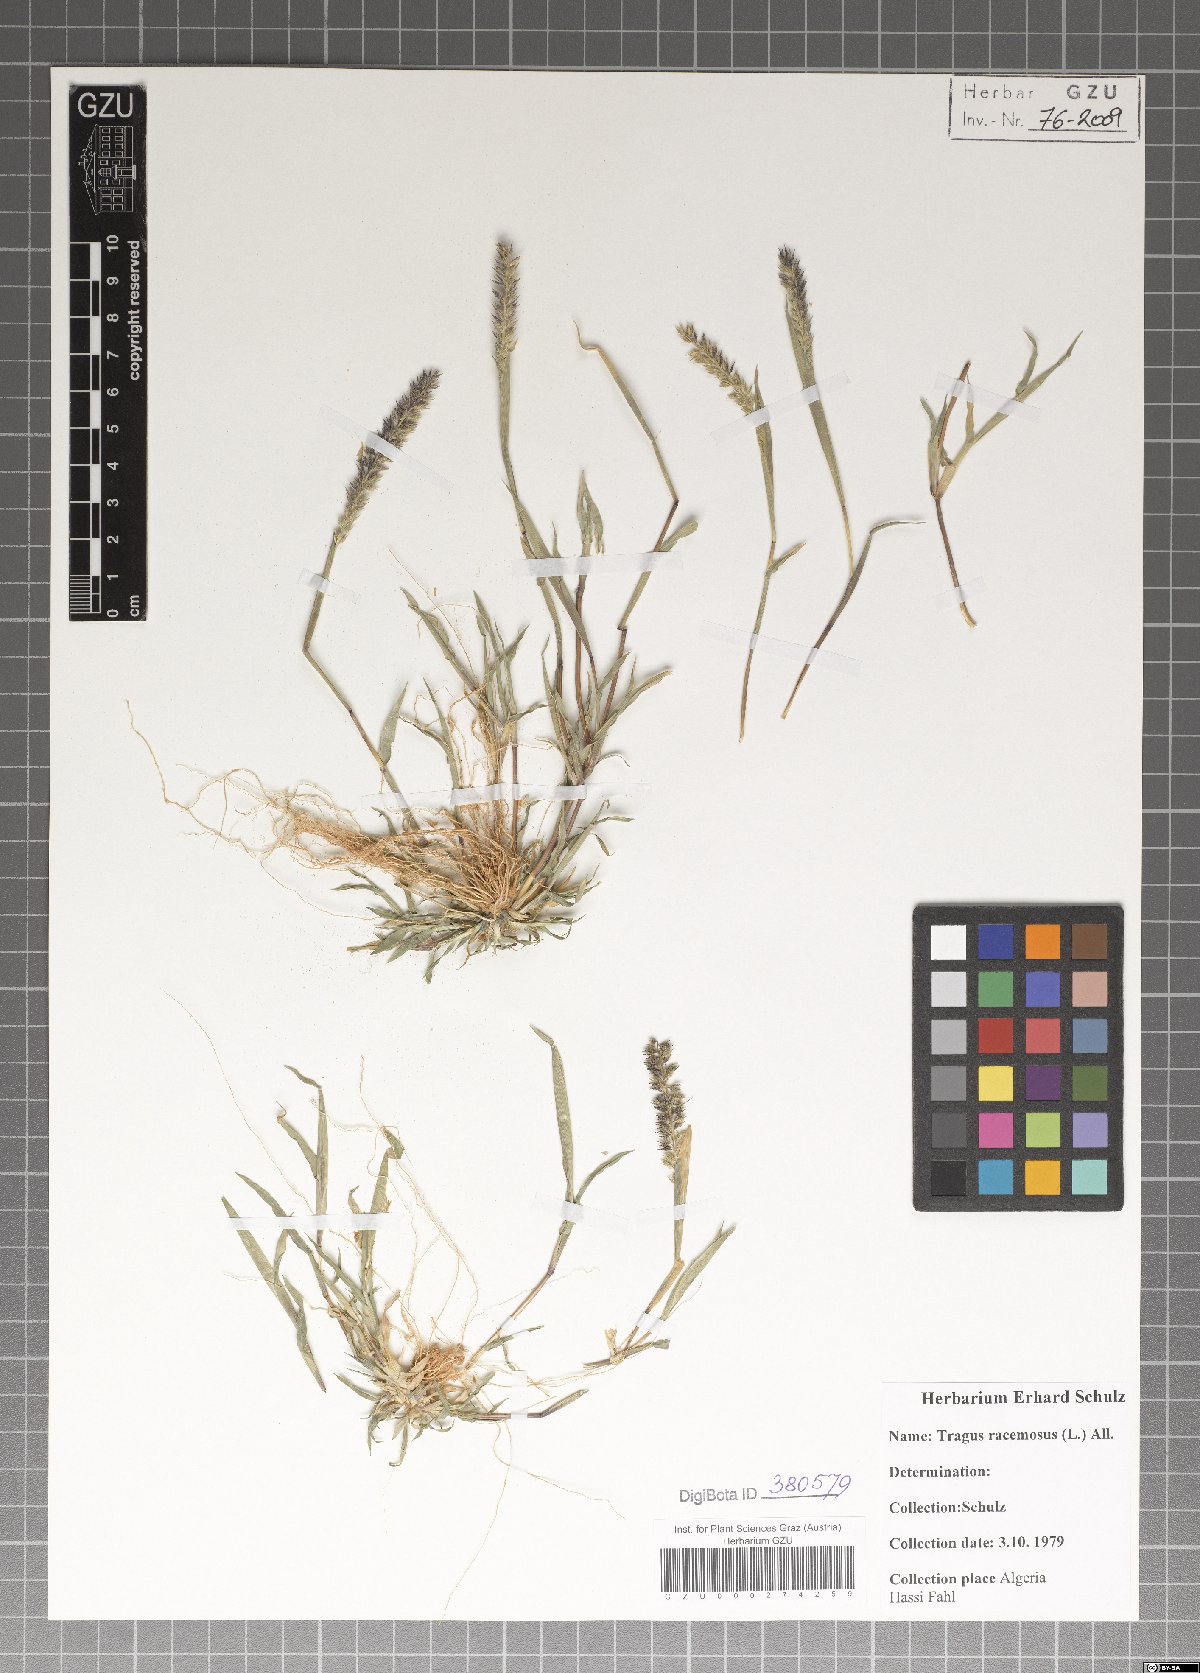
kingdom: Plantae
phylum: Tracheophyta
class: Liliopsida
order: Poales
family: Poaceae
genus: Tragus
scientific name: Tragus racemosus
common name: European bur-grass
